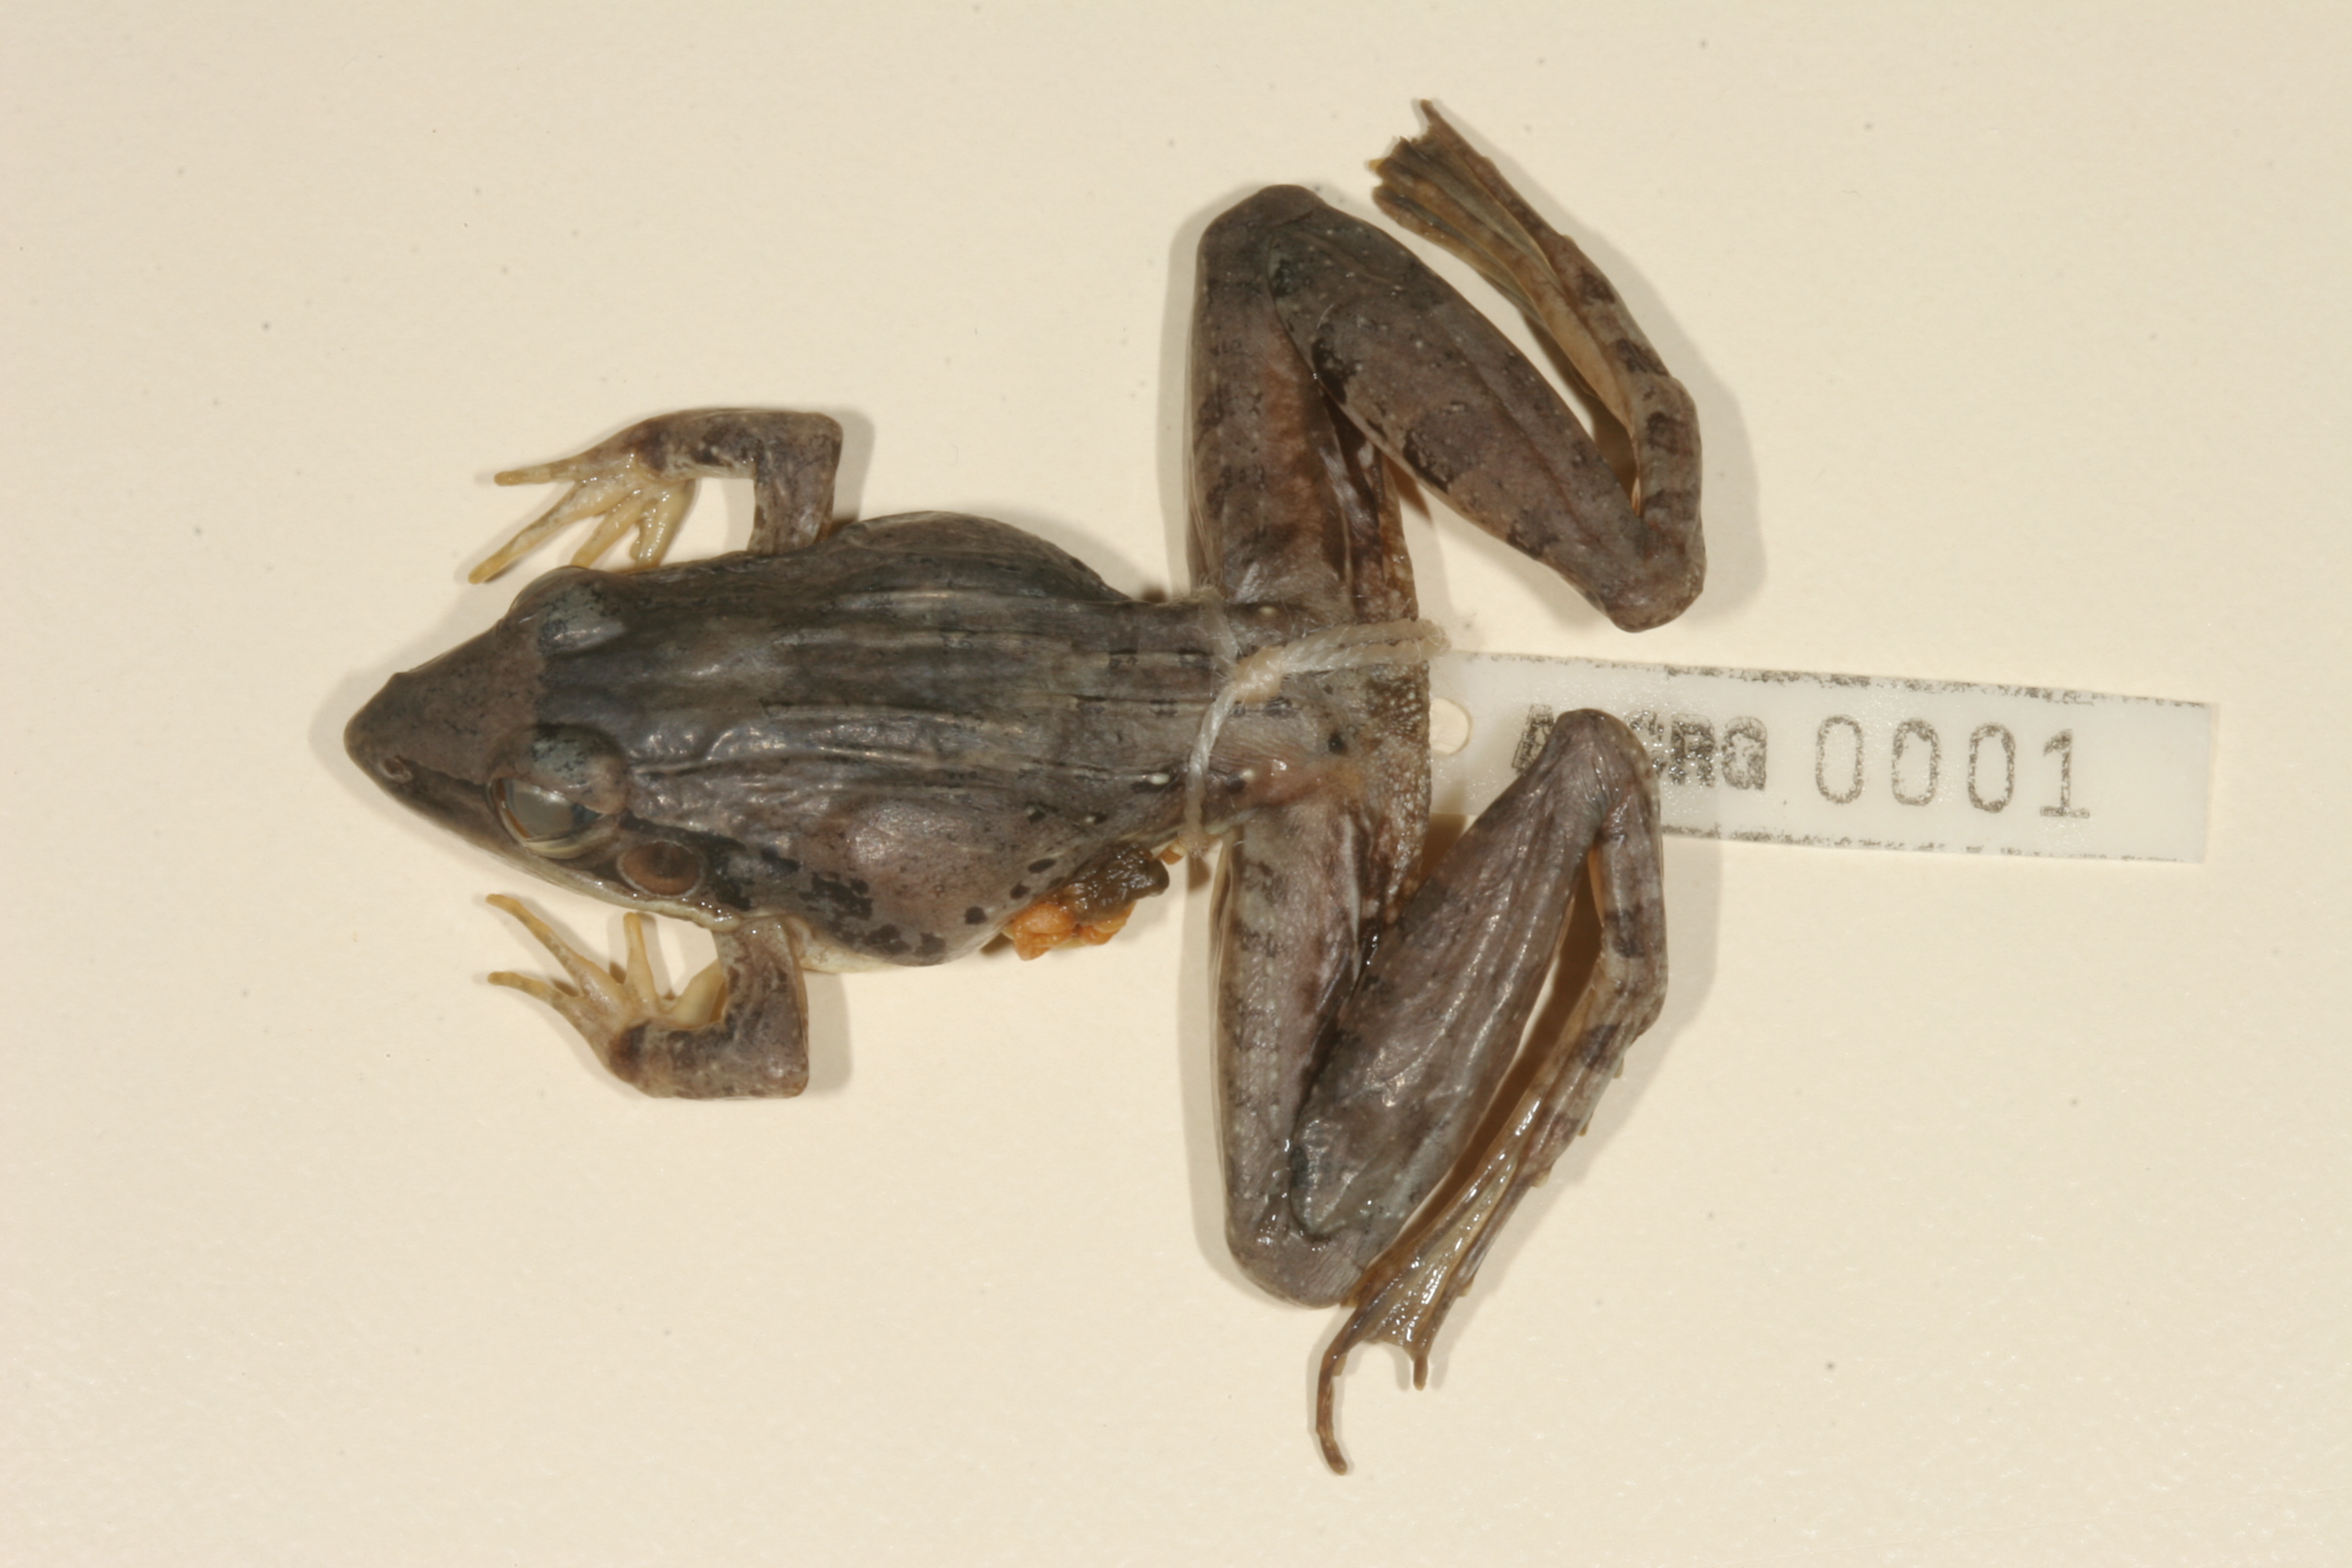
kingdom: Animalia
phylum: Chordata
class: Amphibia
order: Anura
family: Ptychadenidae
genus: Ptychadena
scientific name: Ptychadena anchietae
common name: Anchieta's ridged frog
